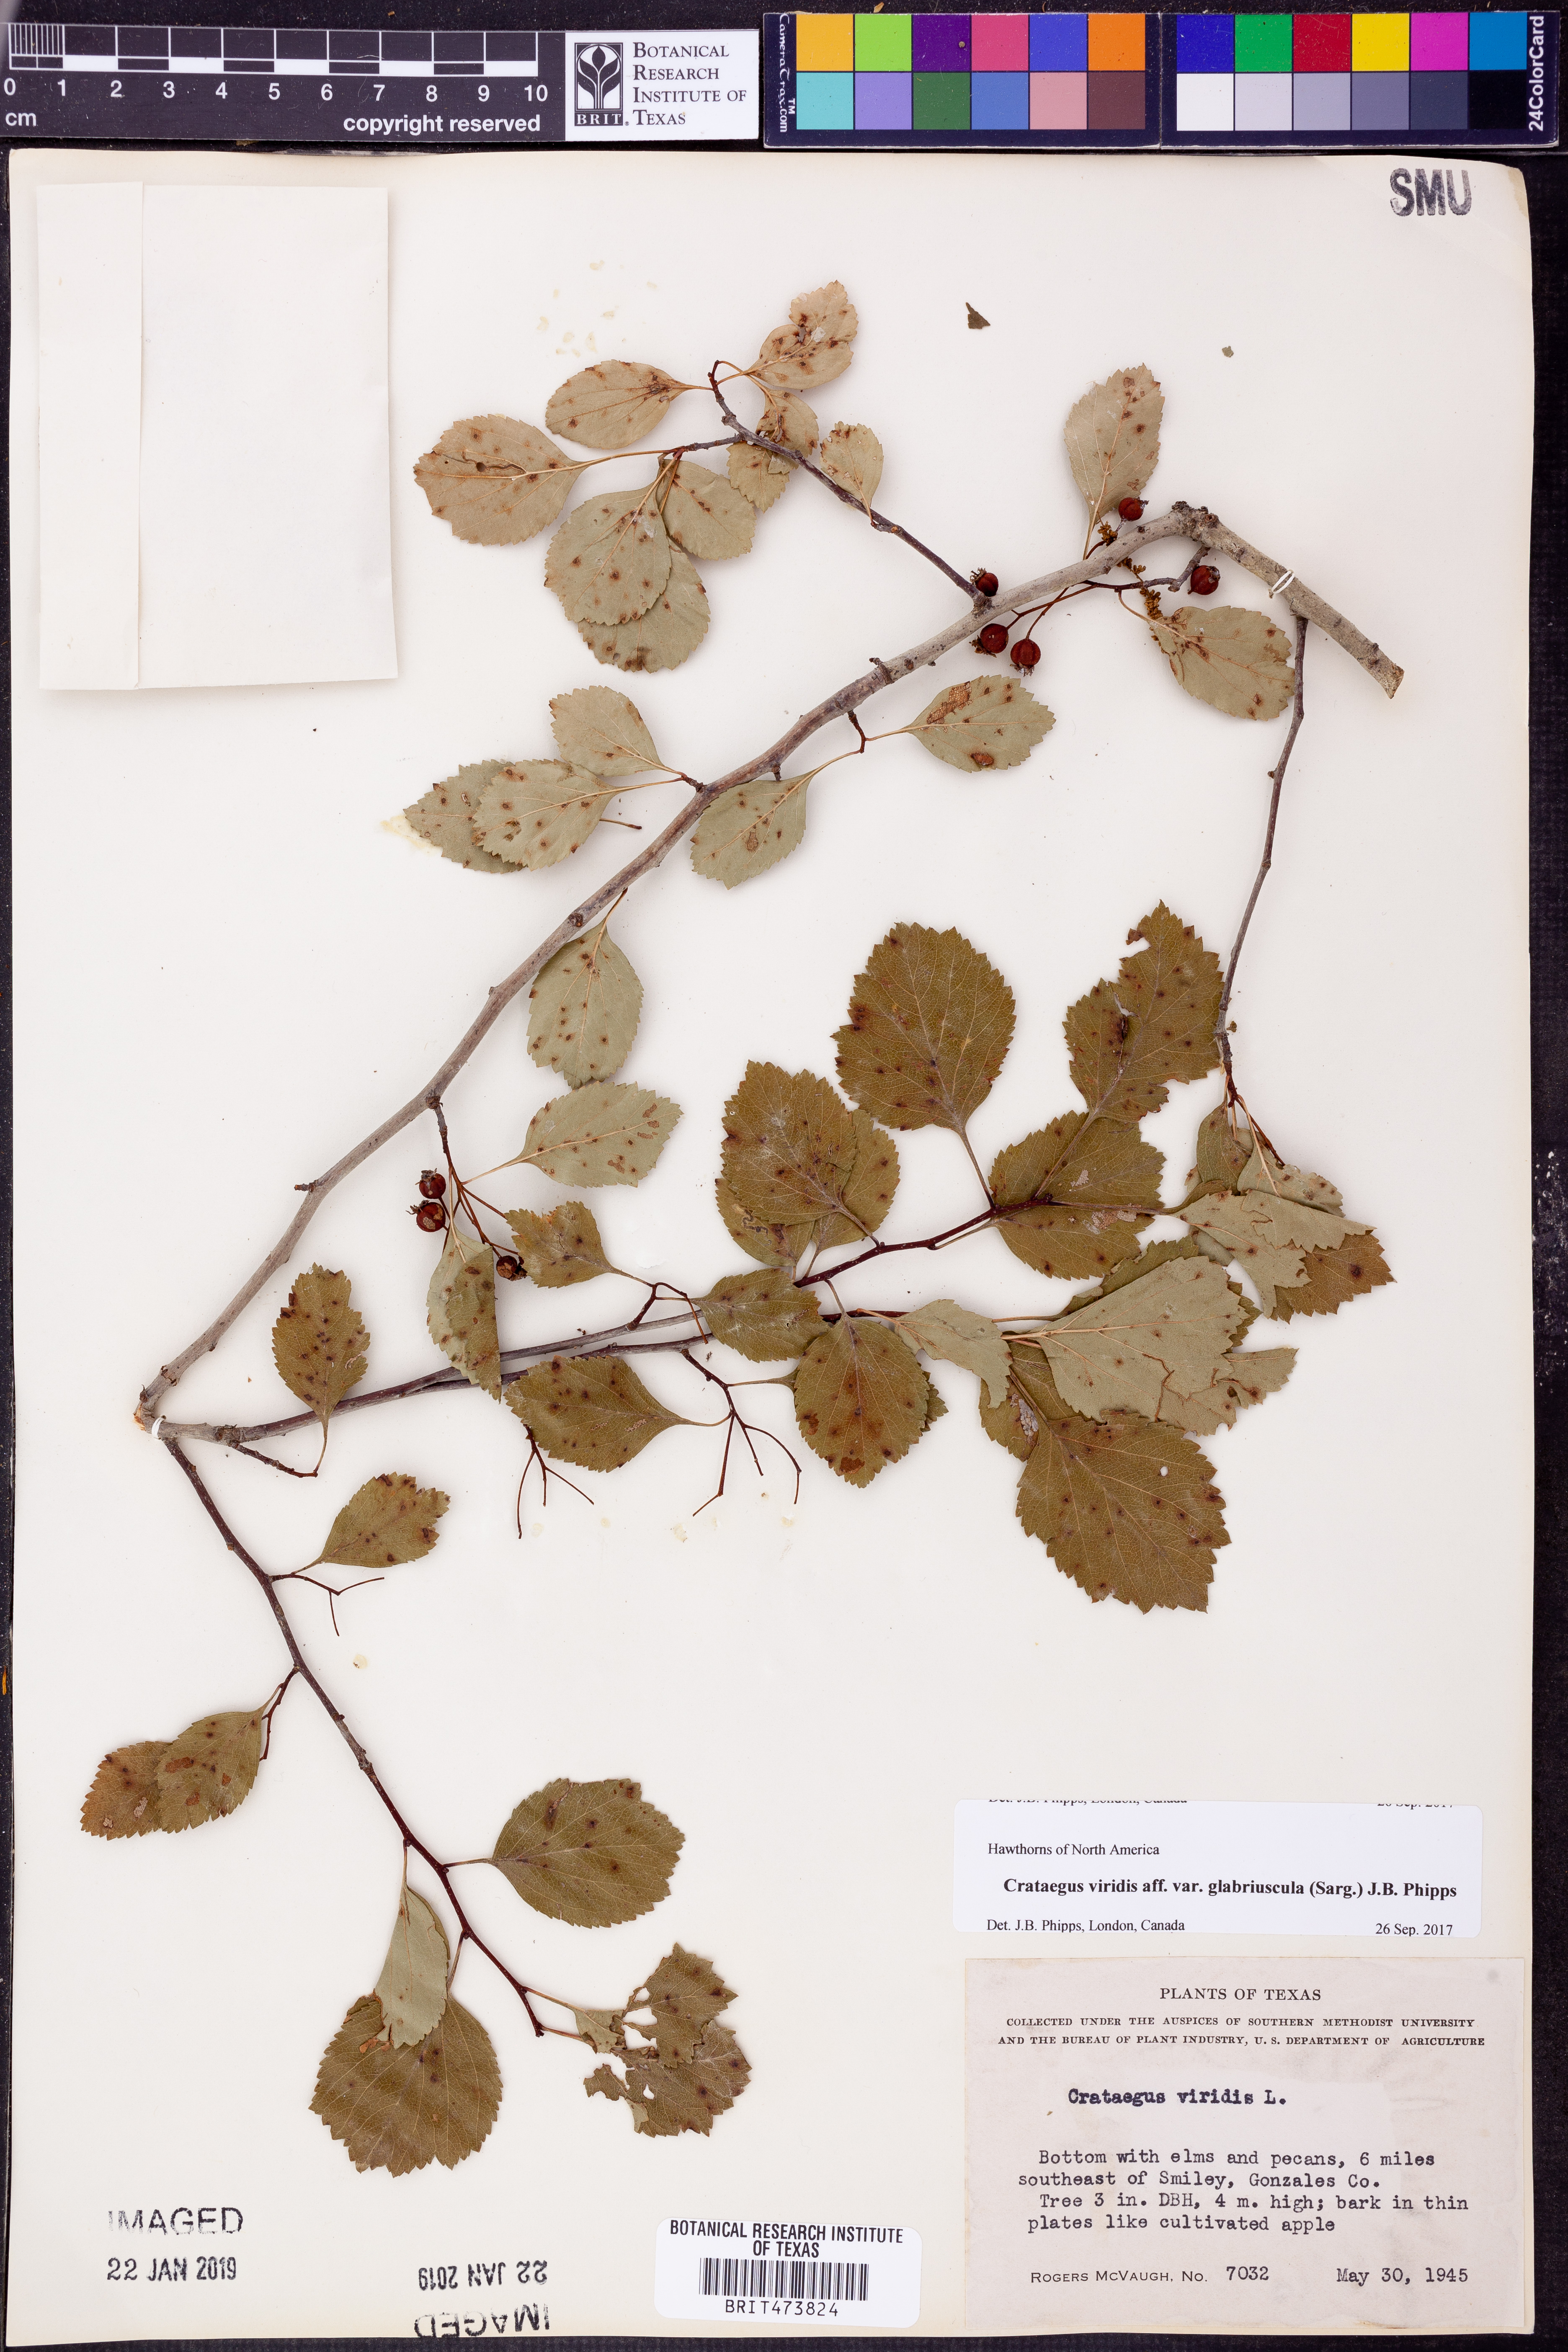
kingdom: Plantae
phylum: Tracheophyta
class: Magnoliopsida
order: Rosales
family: Rosaceae
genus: Crataegus
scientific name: Crataegus viridis
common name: Southernthorn
